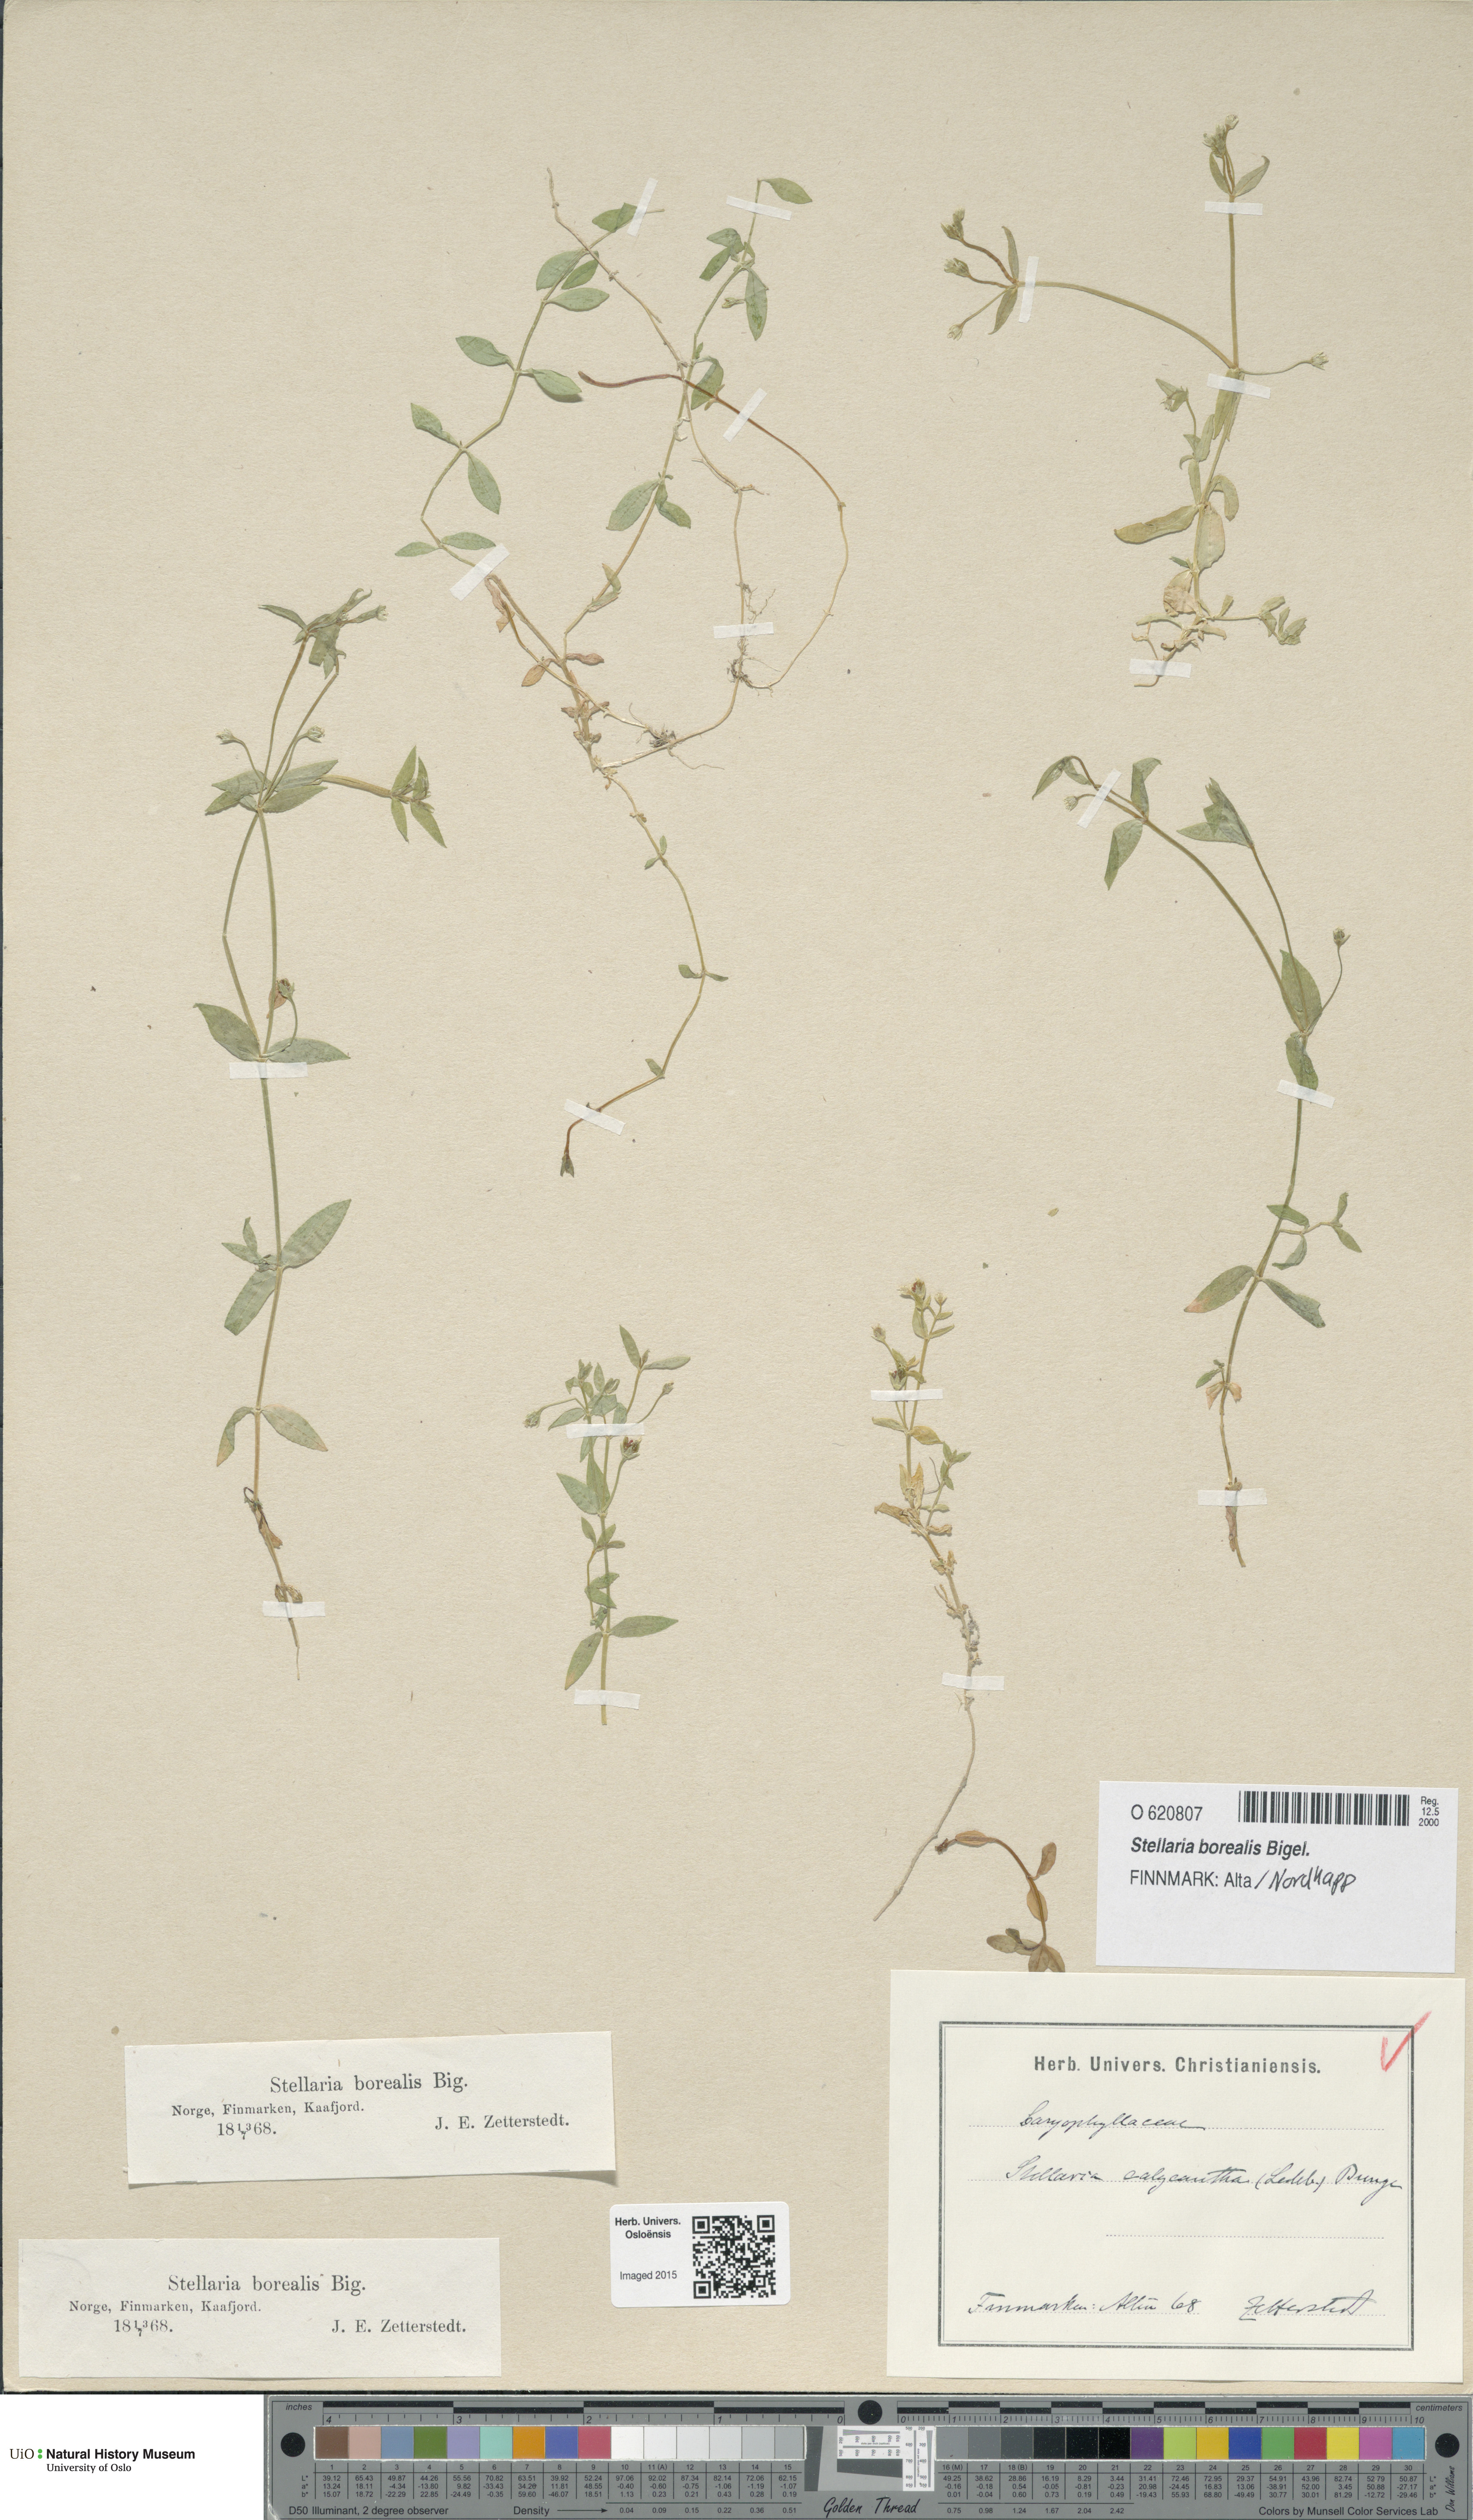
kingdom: Plantae
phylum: Tracheophyta
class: Magnoliopsida
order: Caryophyllales
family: Caryophyllaceae
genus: Stellaria
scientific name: Stellaria borealis
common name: Boreal starwort
